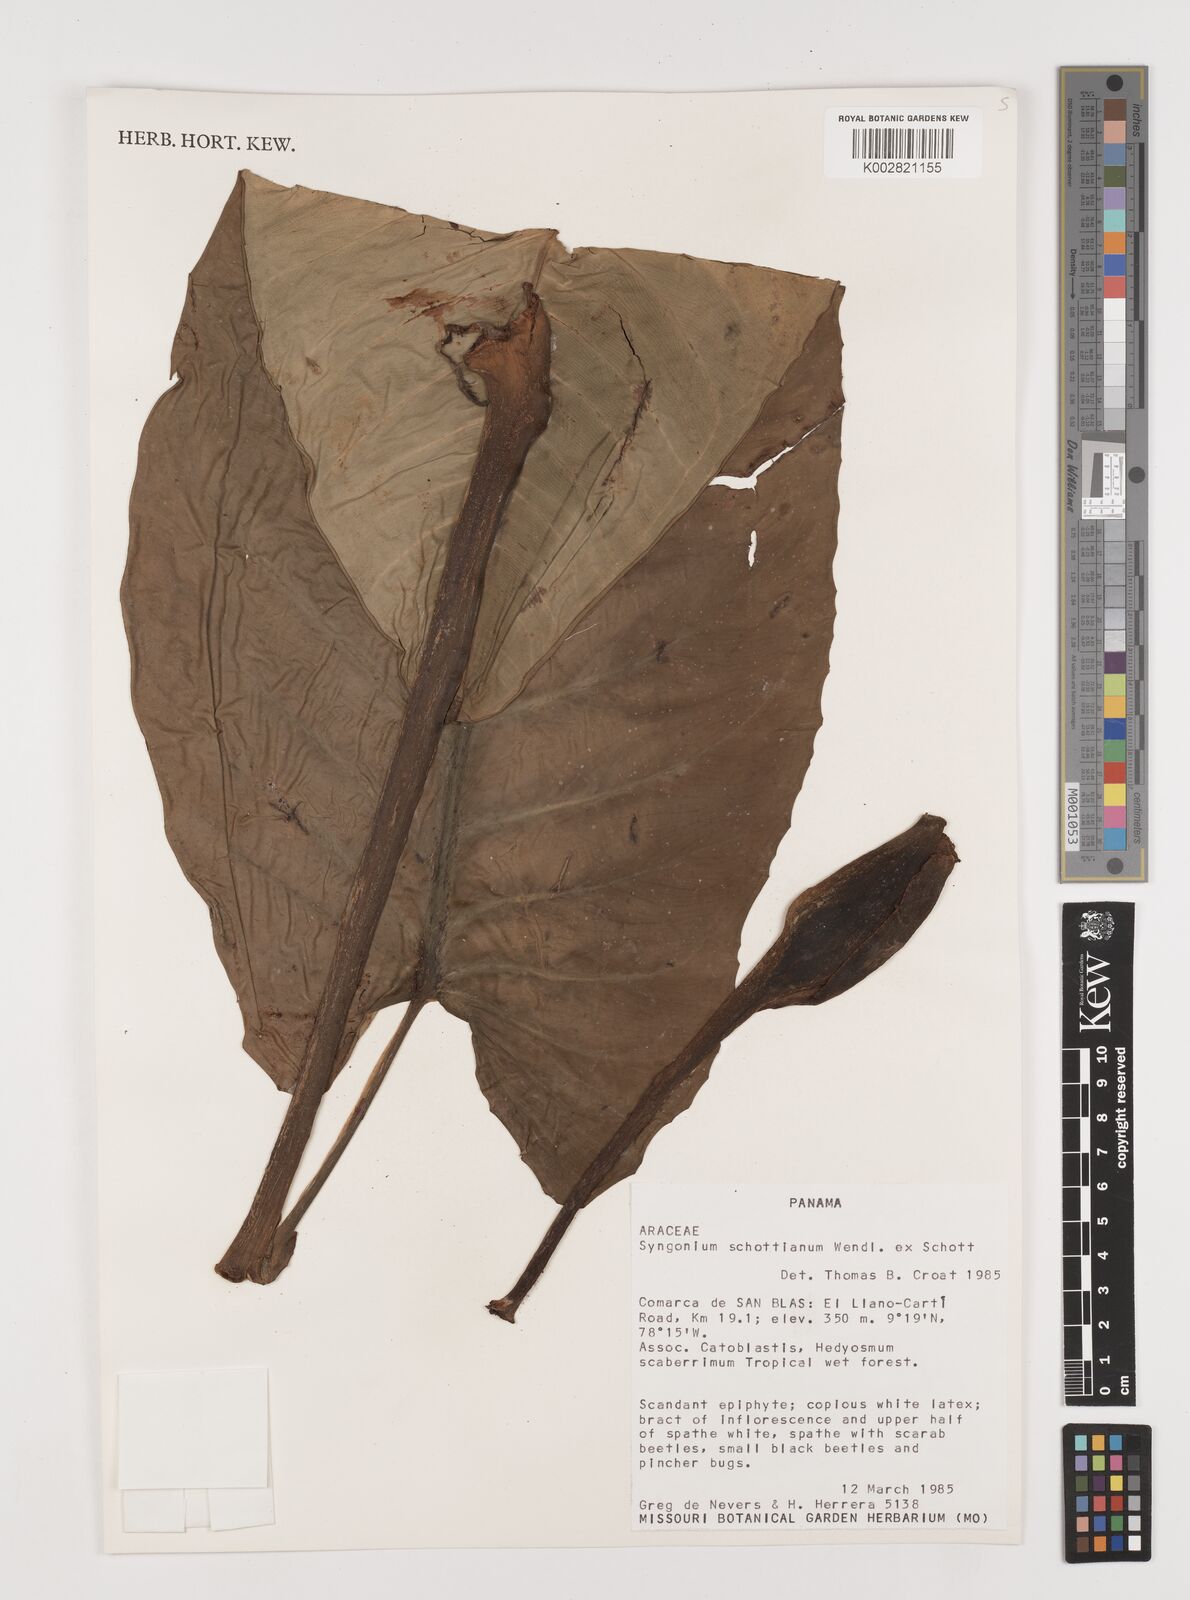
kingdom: Plantae
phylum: Tracheophyta
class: Liliopsida
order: Alismatales
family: Araceae
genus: Syngonium
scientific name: Syngonium schottianum
